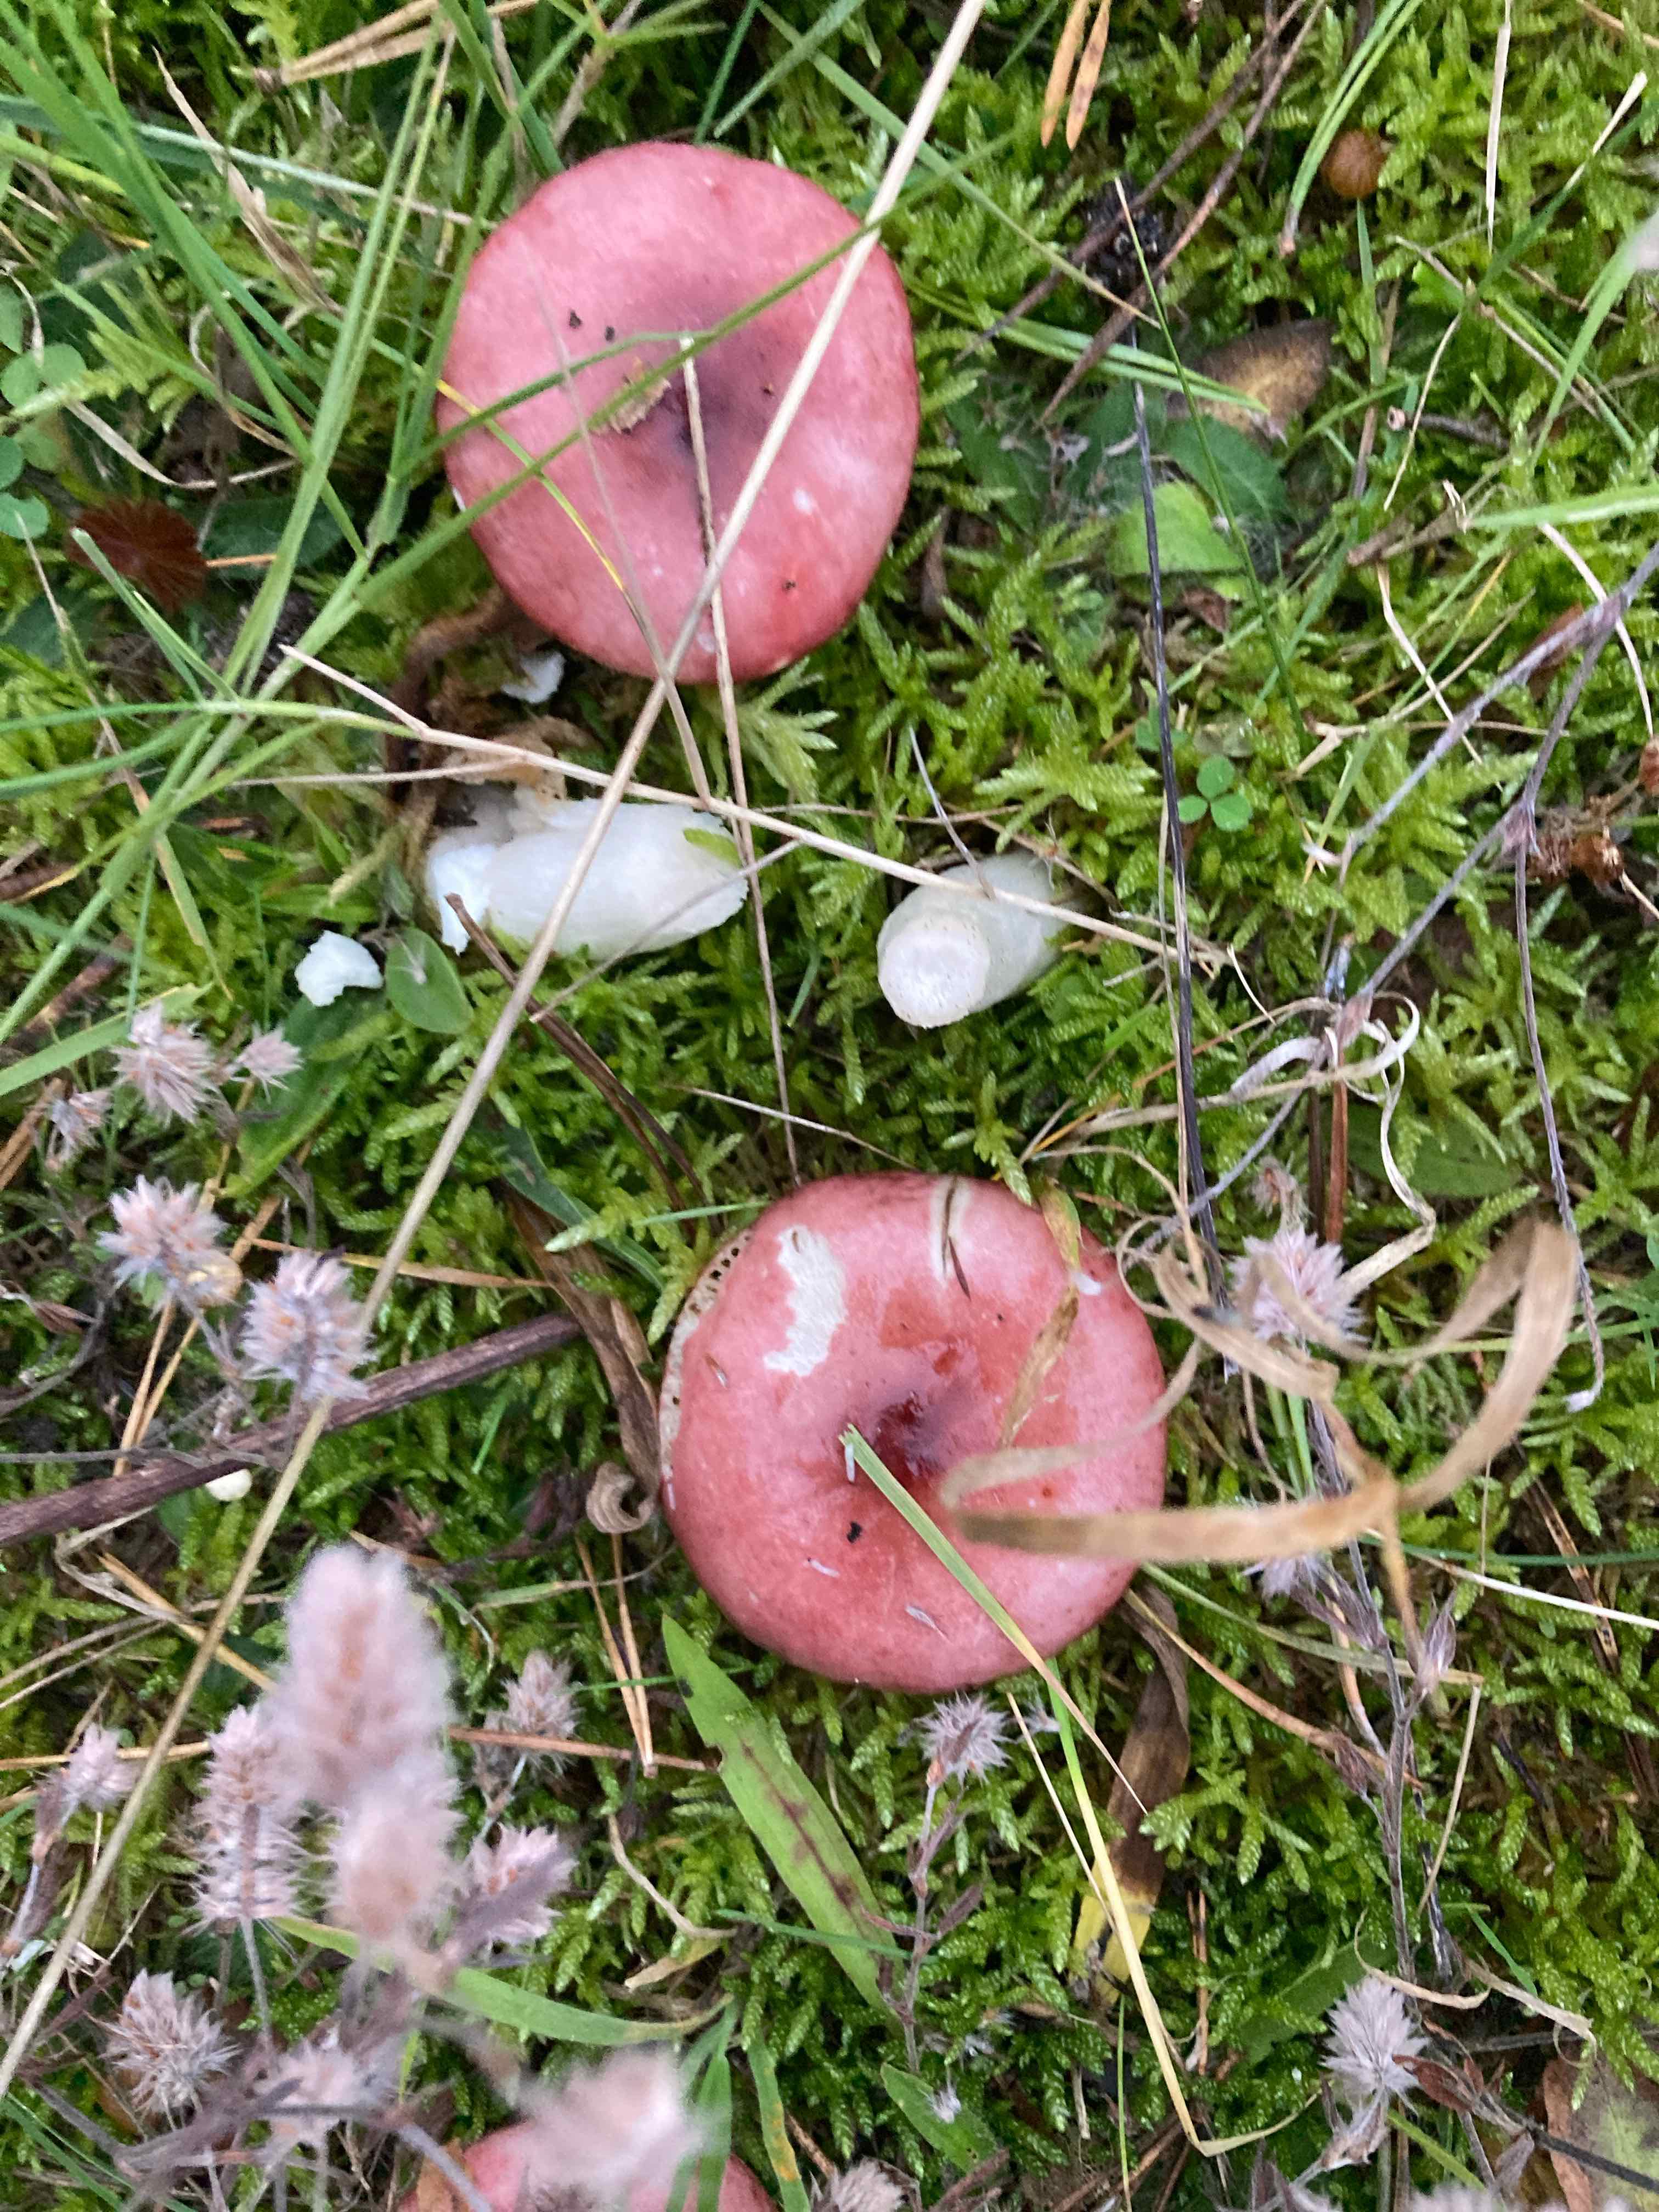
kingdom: Fungi
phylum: Basidiomycota
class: Agaricomycetes
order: Russulales
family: Russulaceae
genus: Russula
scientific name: Russula
